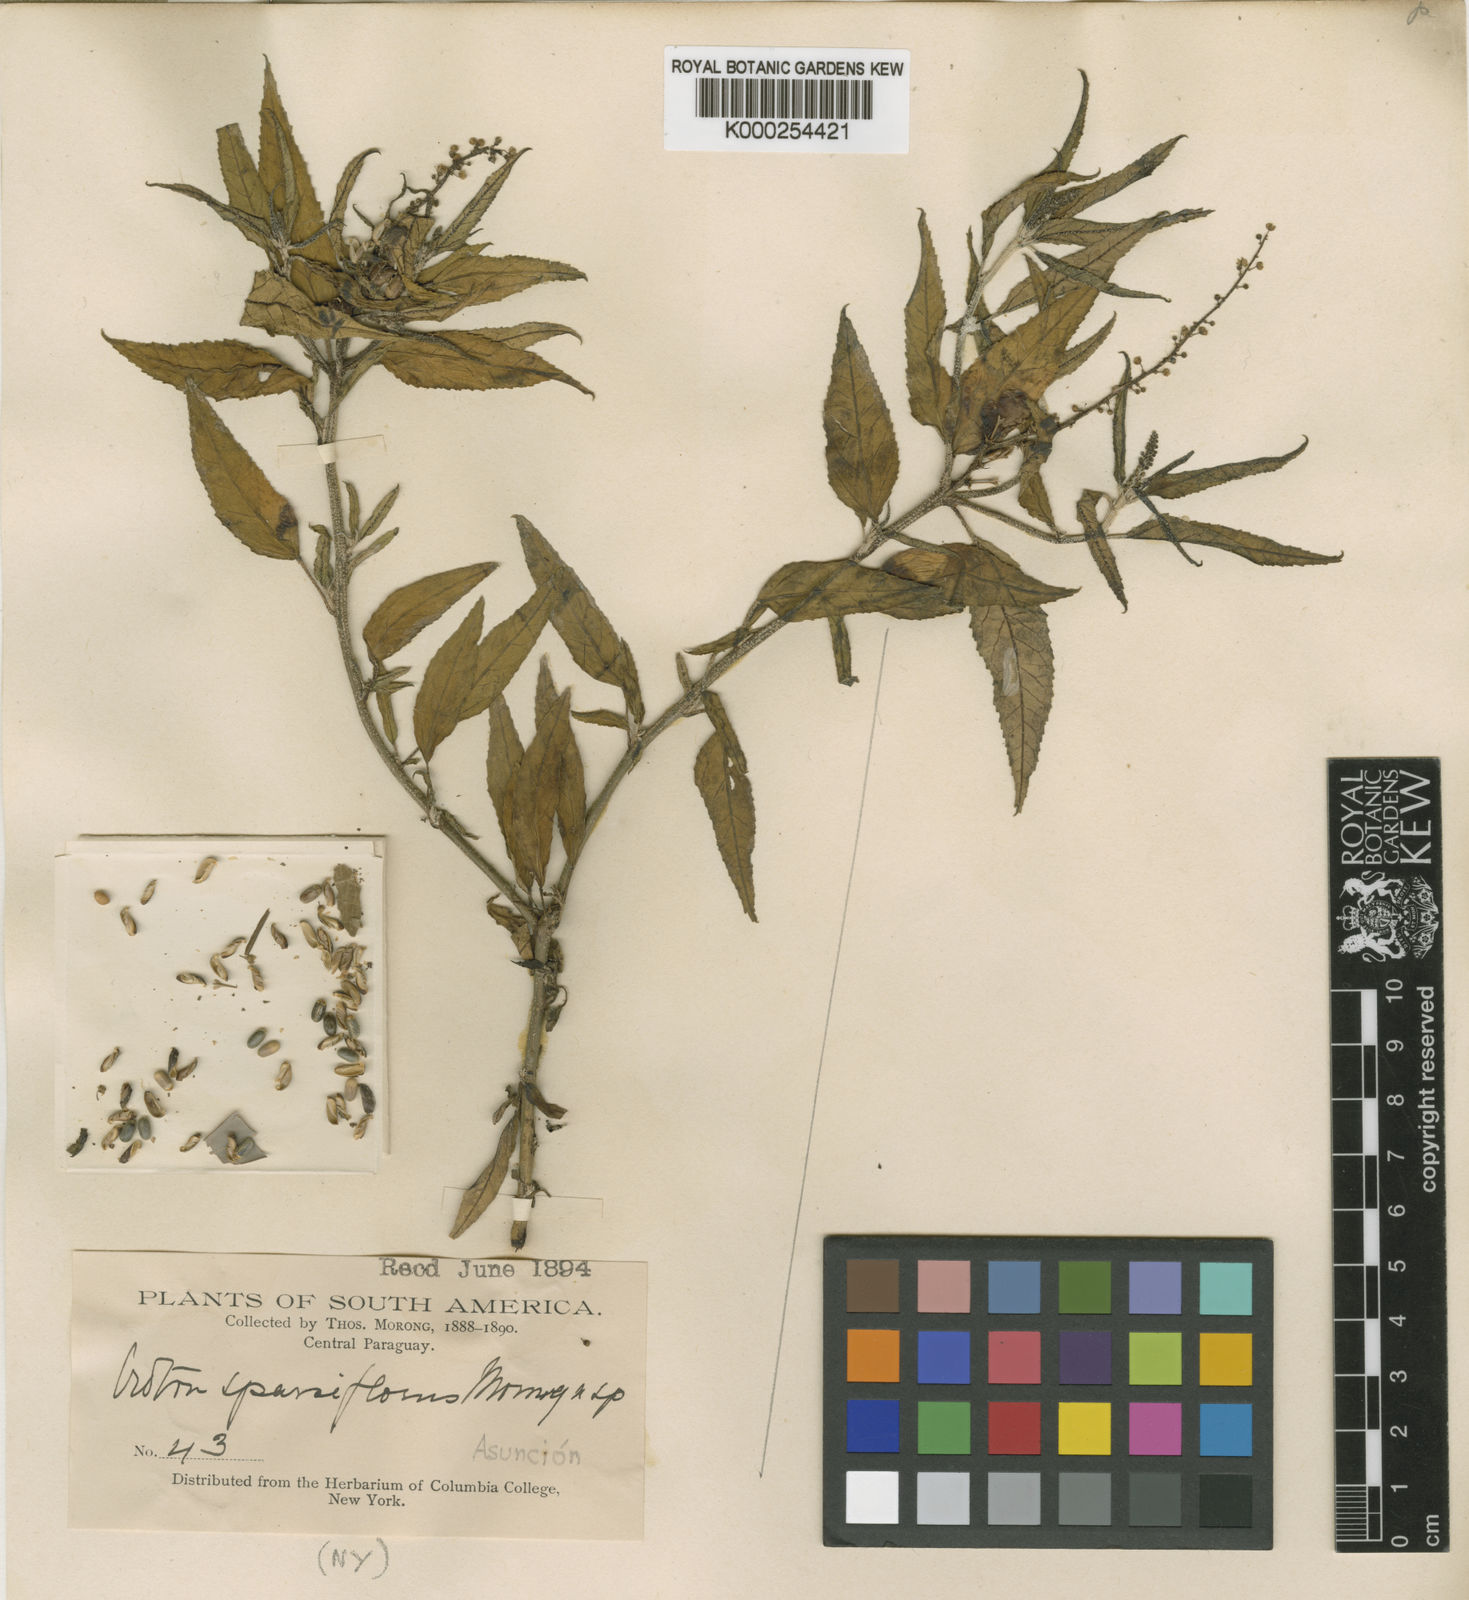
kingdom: Plantae
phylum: Tracheophyta
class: Magnoliopsida
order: Malpighiales
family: Euphorbiaceae
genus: Croton
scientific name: Croton bonplandianus
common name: Bonpland's croton
